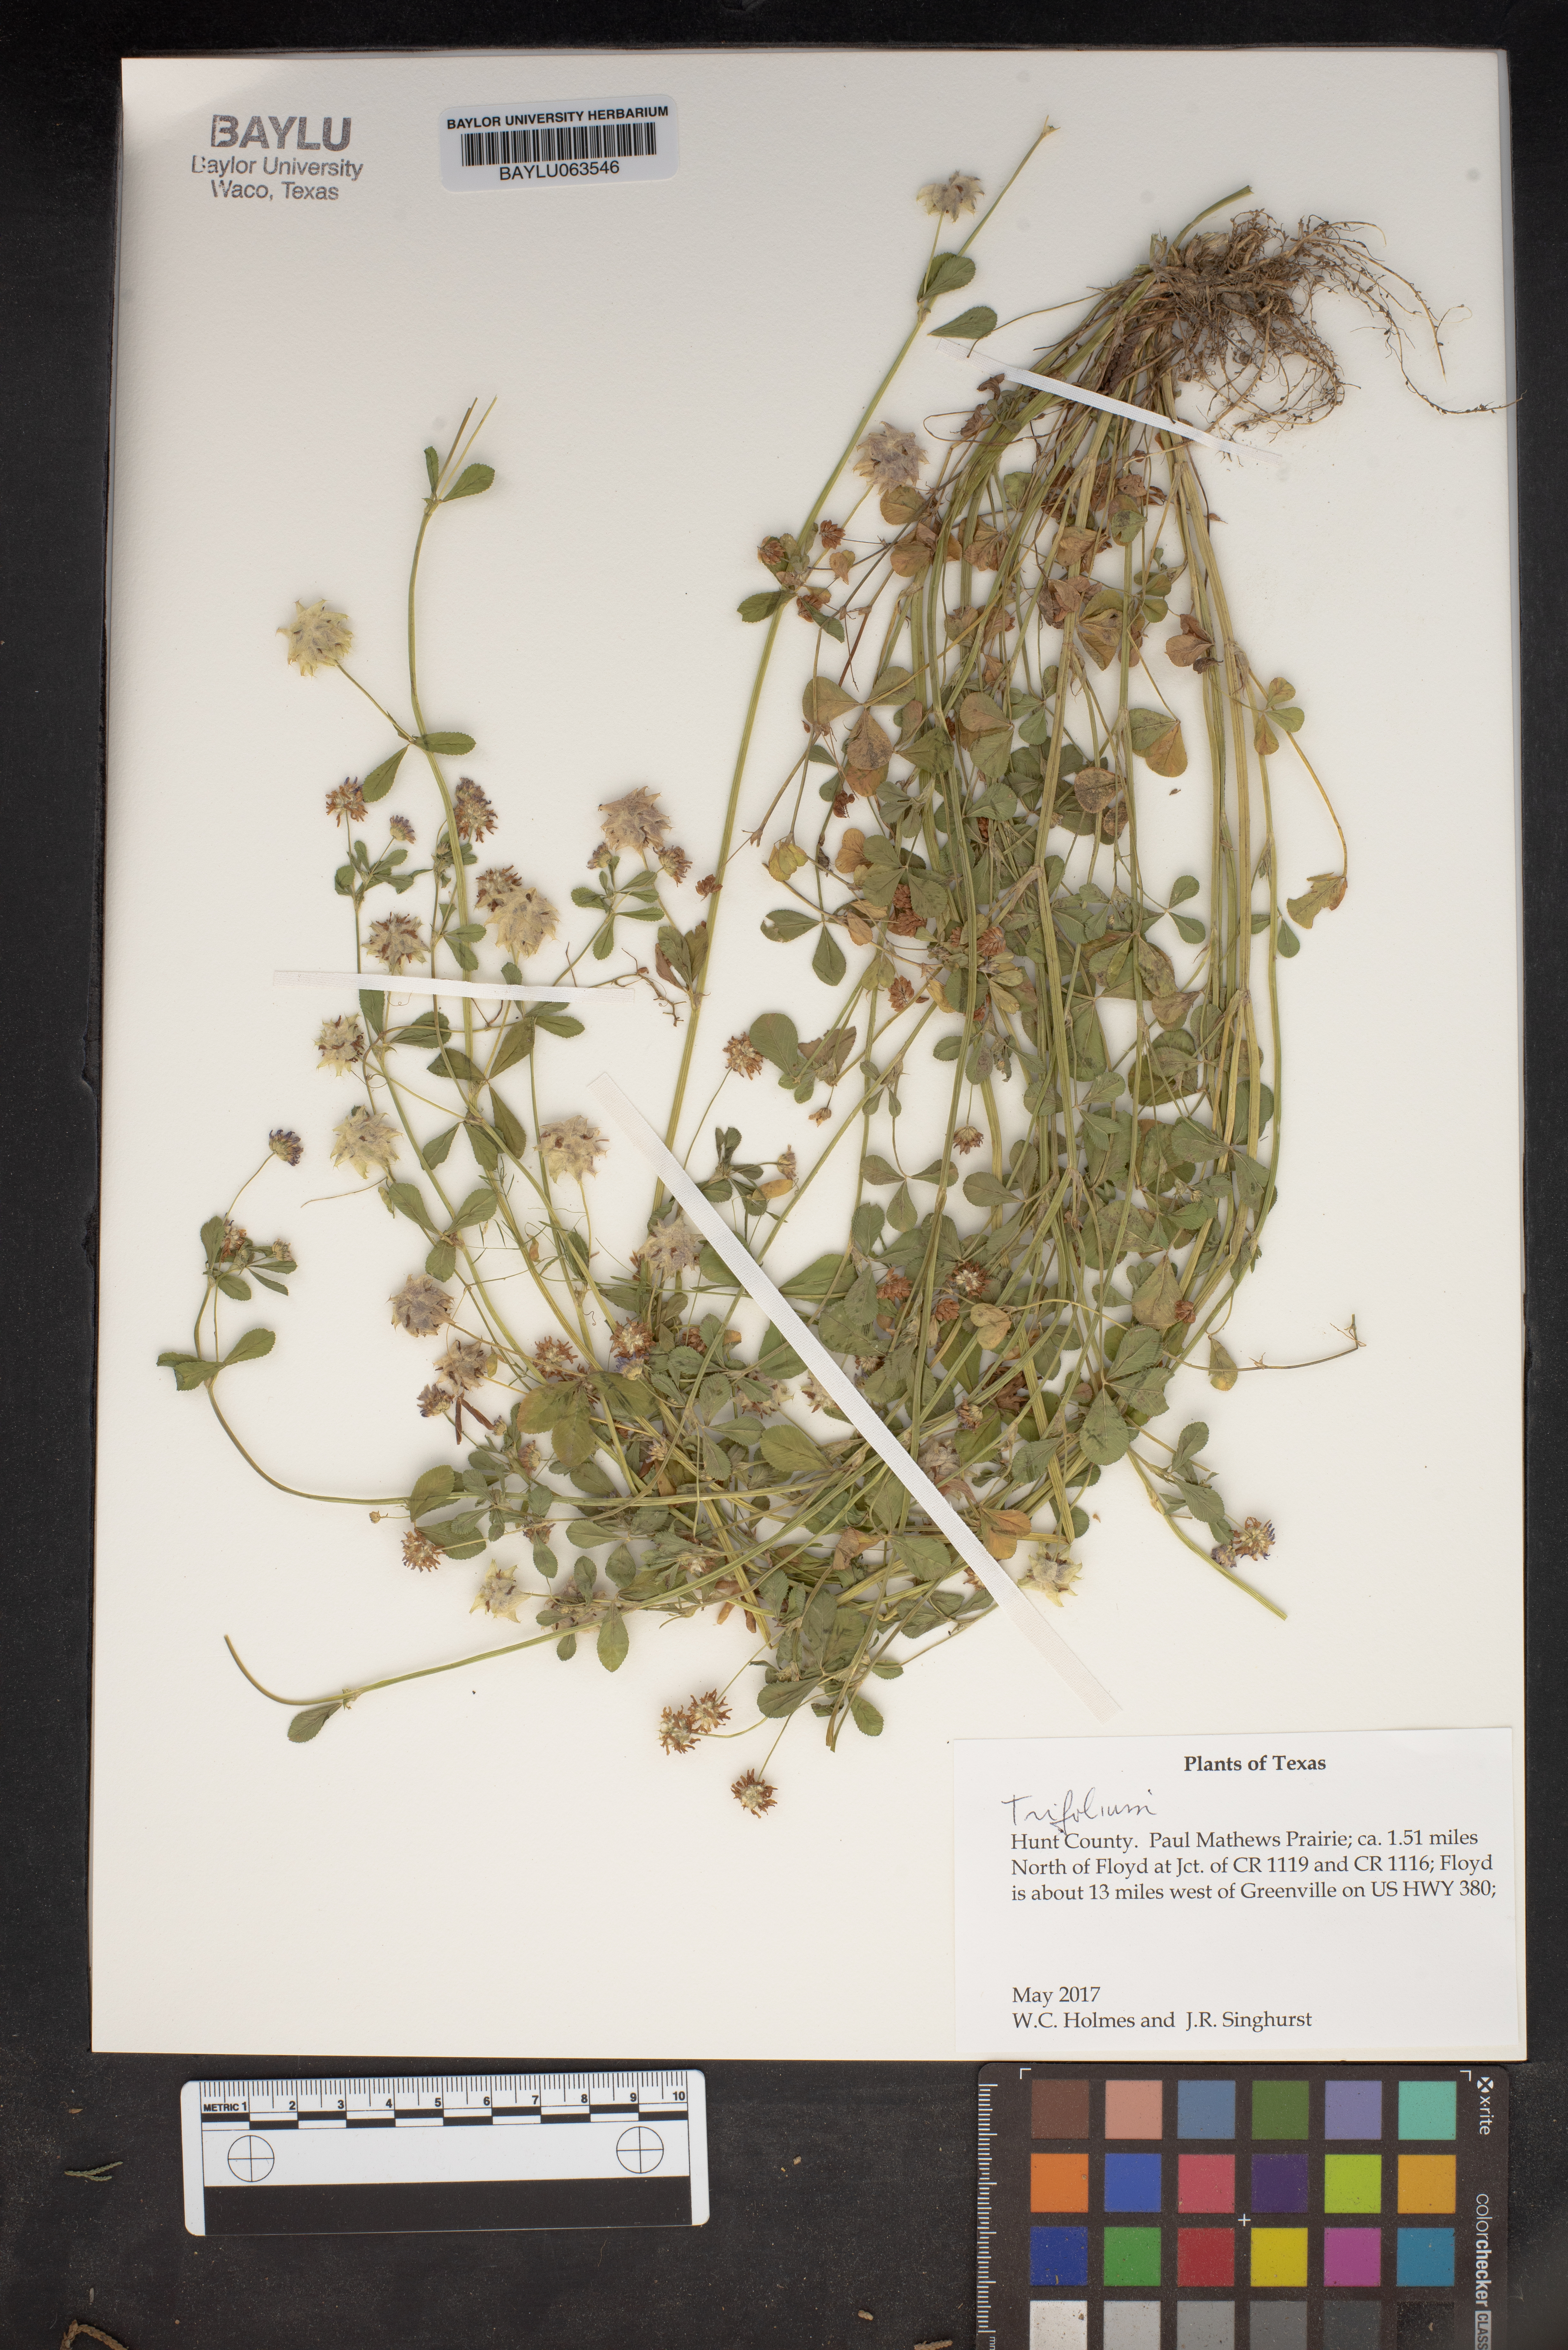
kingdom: Plantae
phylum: Tracheophyta
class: Magnoliopsida
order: Fabales
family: Fabaceae
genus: Trifolium
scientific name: Trifolium
